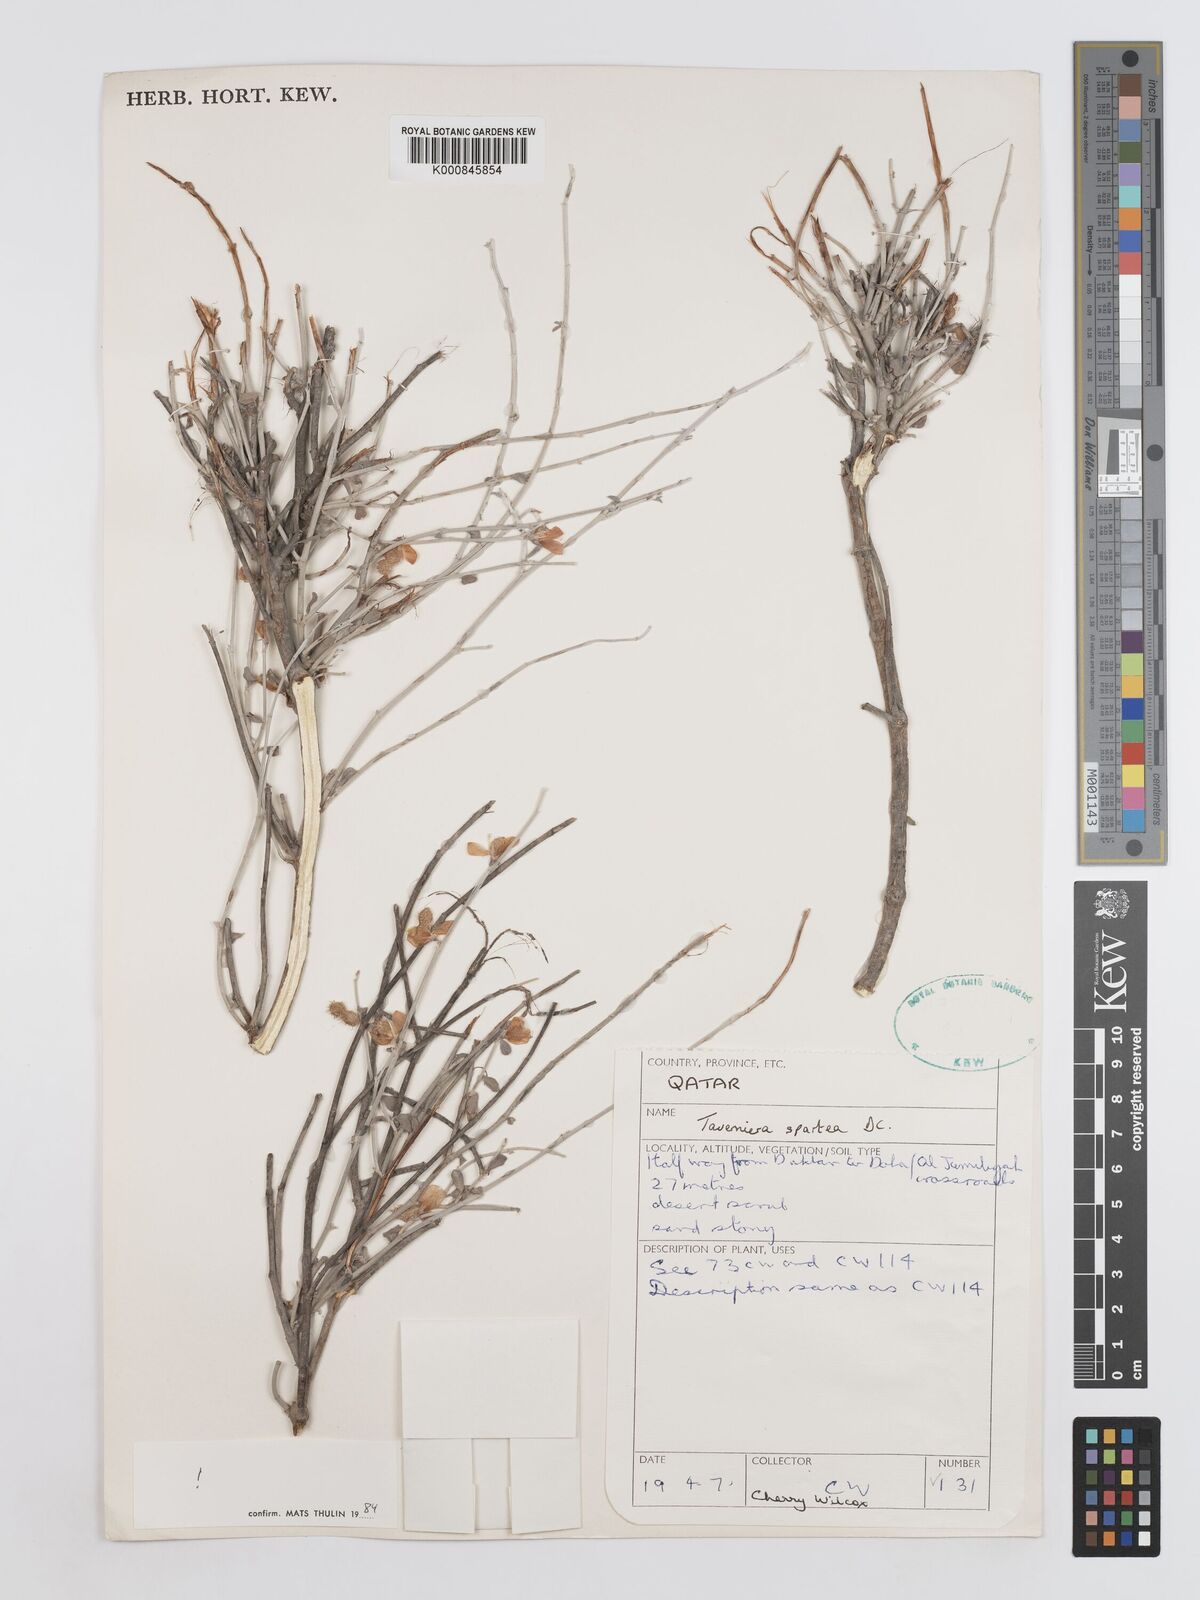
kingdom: Plantae
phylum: Tracheophyta
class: Magnoliopsida
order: Fabales
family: Fabaceae
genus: Taverniera
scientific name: Taverniera spartea
